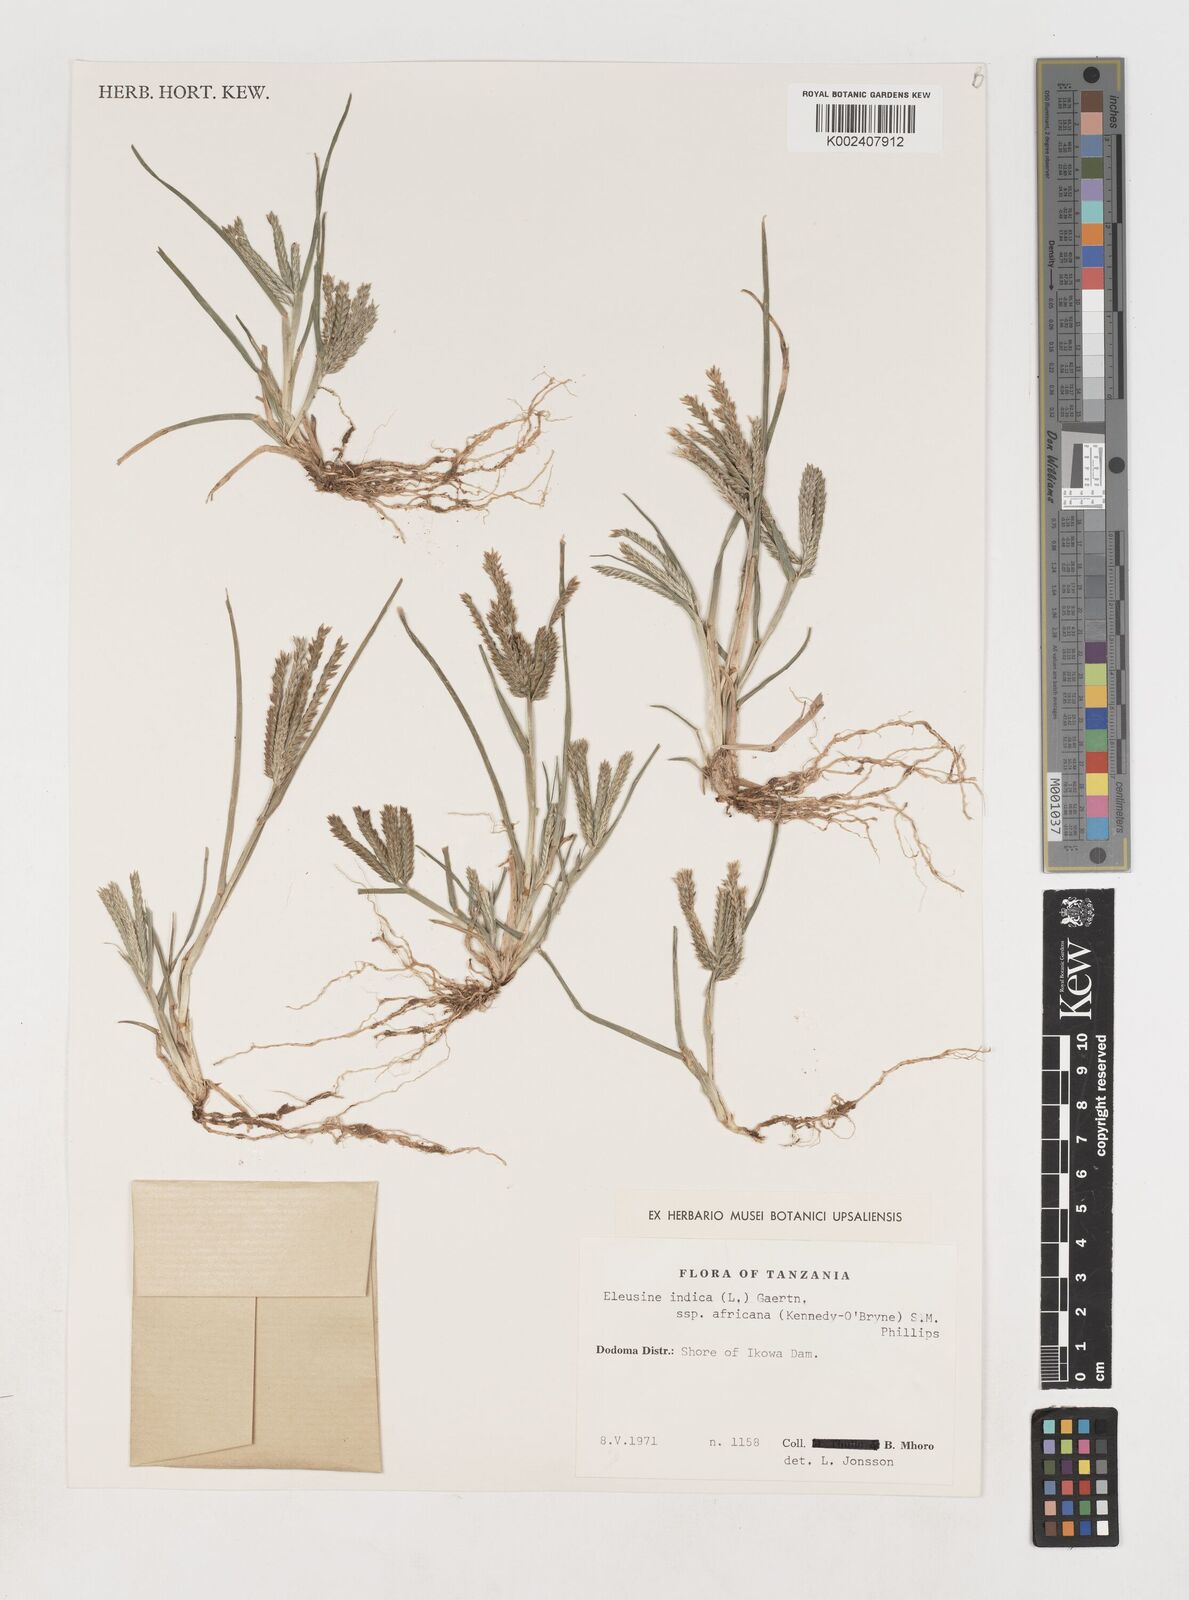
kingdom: Plantae
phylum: Tracheophyta
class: Liliopsida
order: Poales
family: Poaceae
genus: Eleusine
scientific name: Eleusine africana
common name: Wild african finger millet
